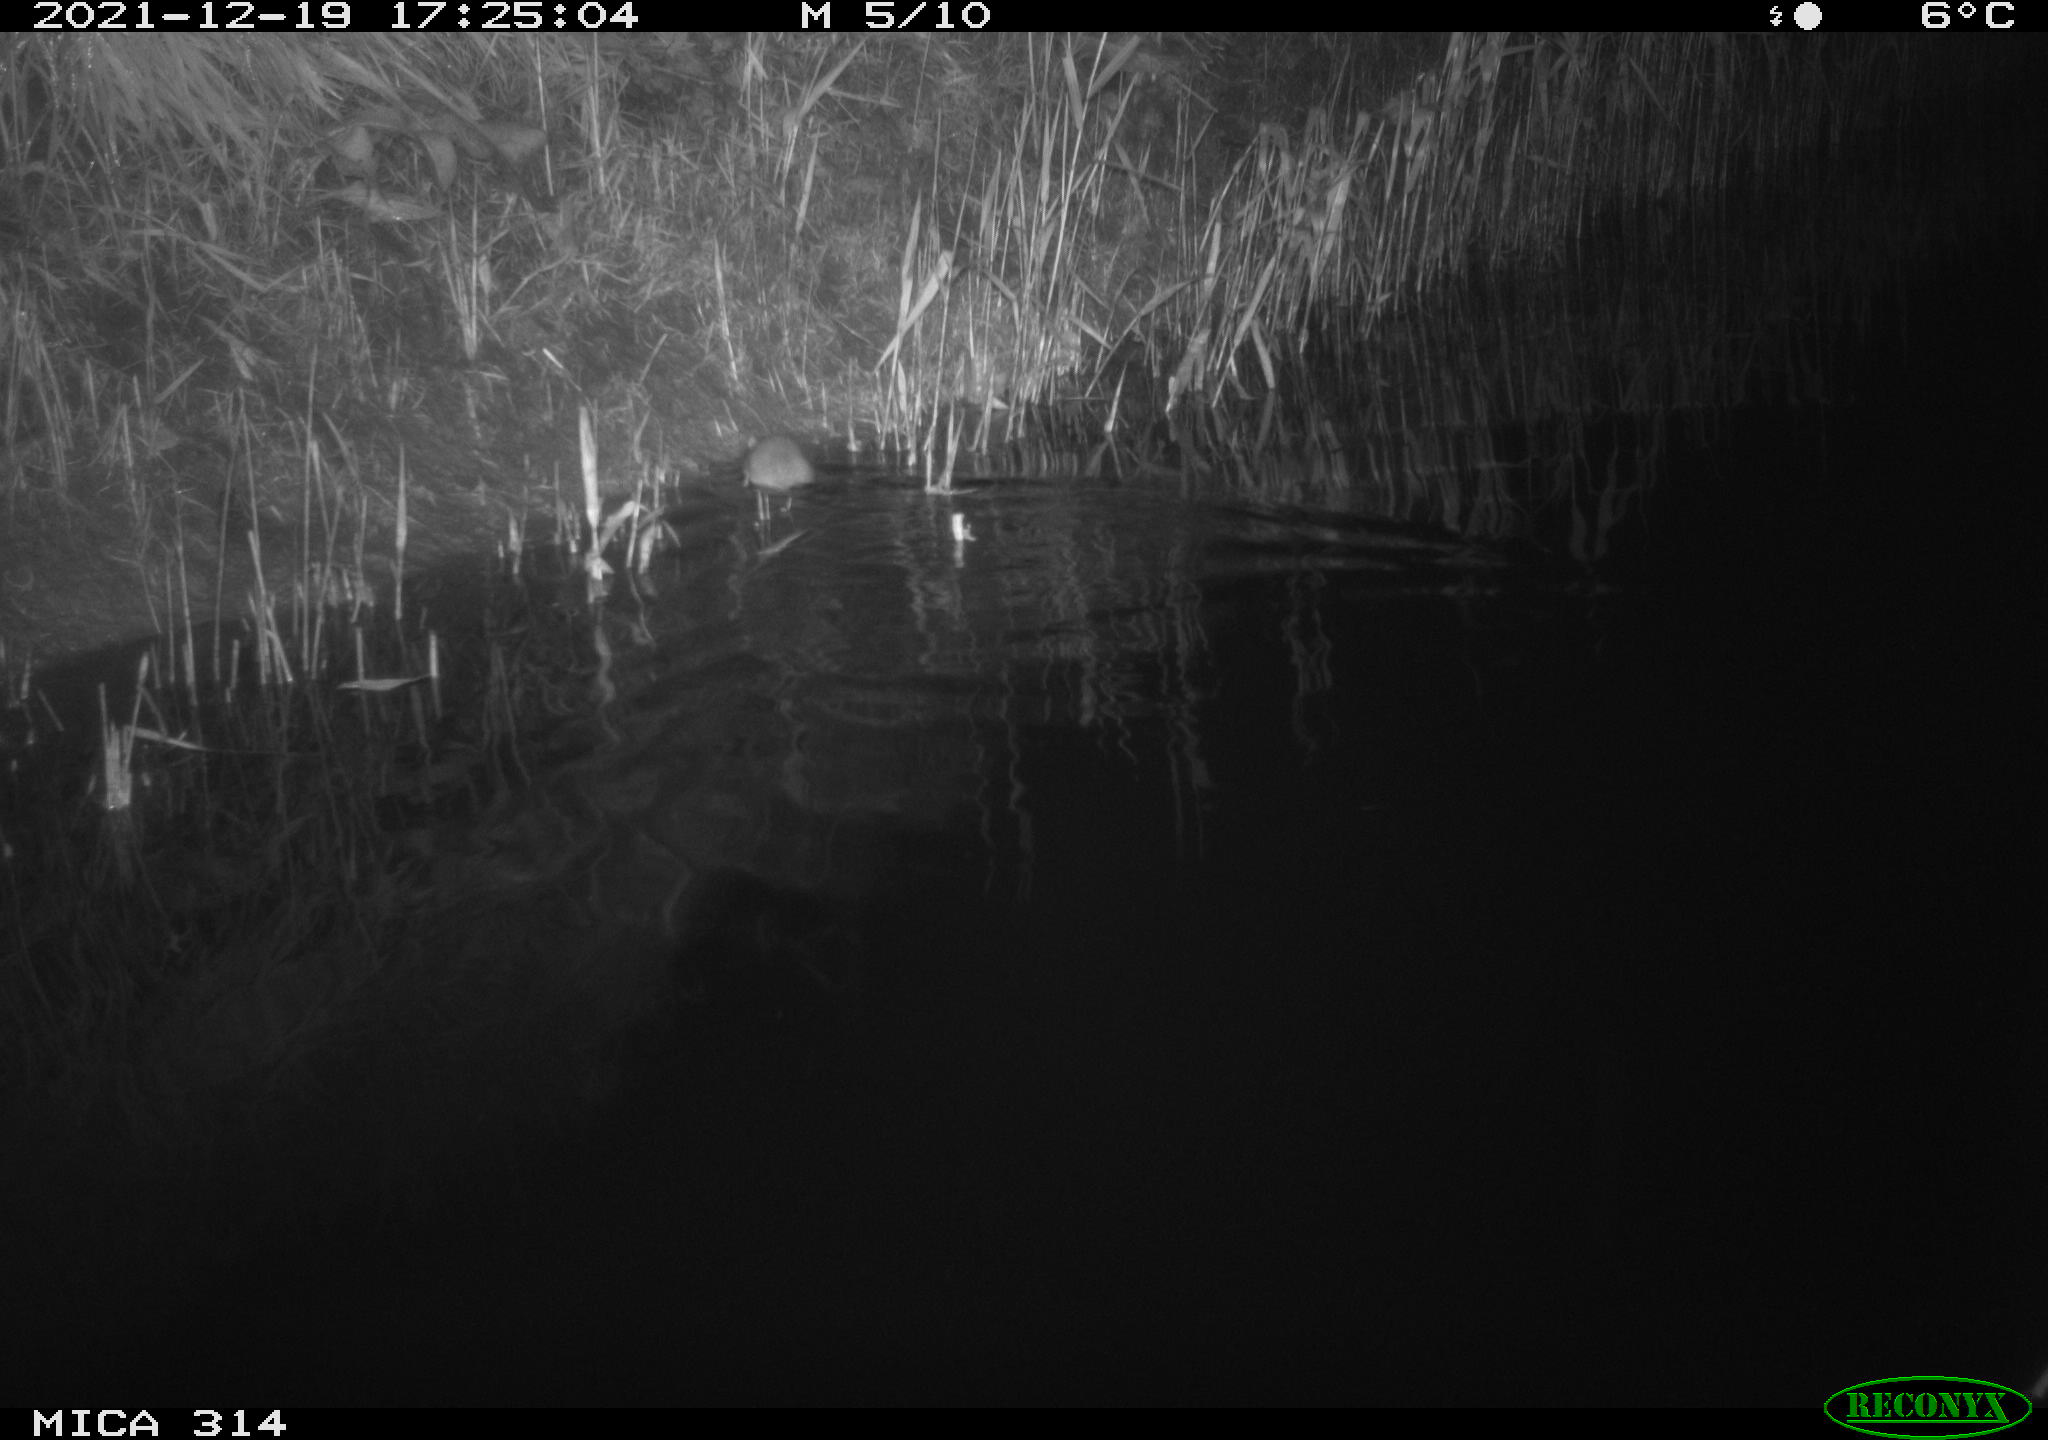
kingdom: Animalia
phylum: Chordata
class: Mammalia
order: Rodentia
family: Muridae
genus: Rattus
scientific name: Rattus norvegicus
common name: Brown rat
